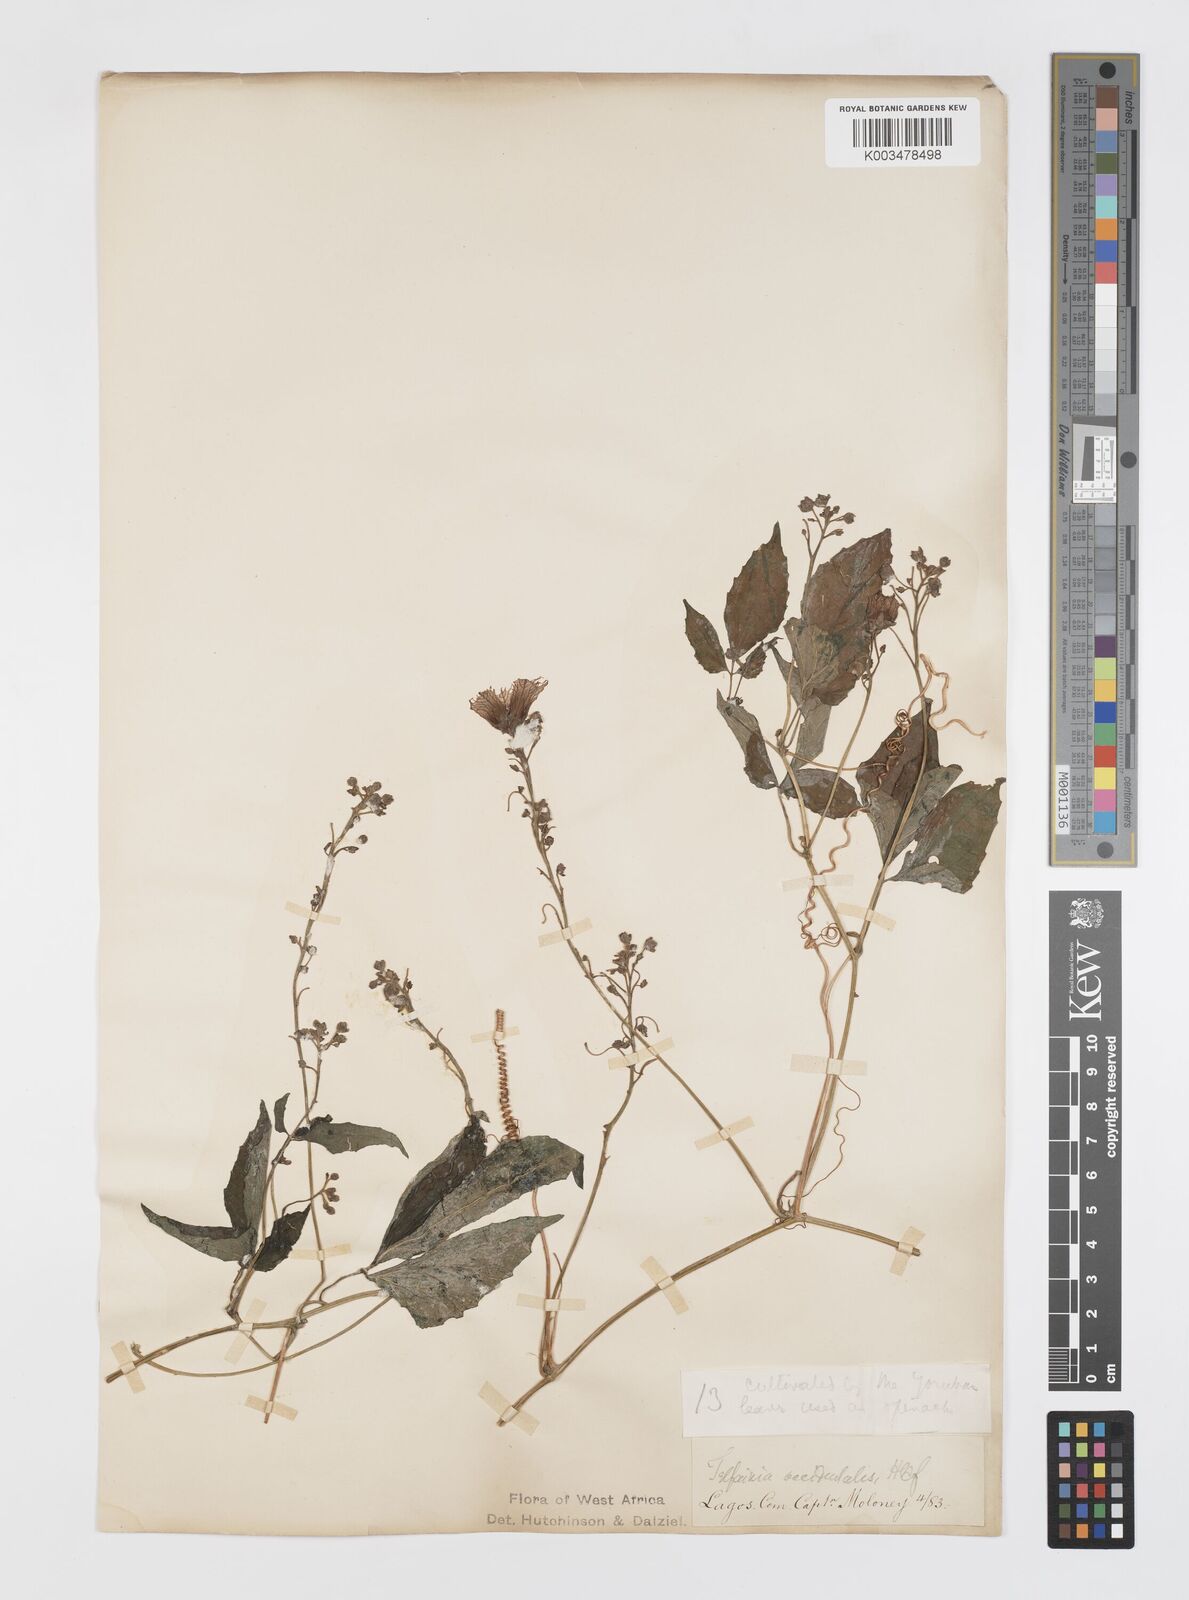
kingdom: Plantae
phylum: Tracheophyta
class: Magnoliopsida
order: Cucurbitales
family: Cucurbitaceae
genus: Telfairia
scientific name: Telfairia occidentalis
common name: Oysternut
